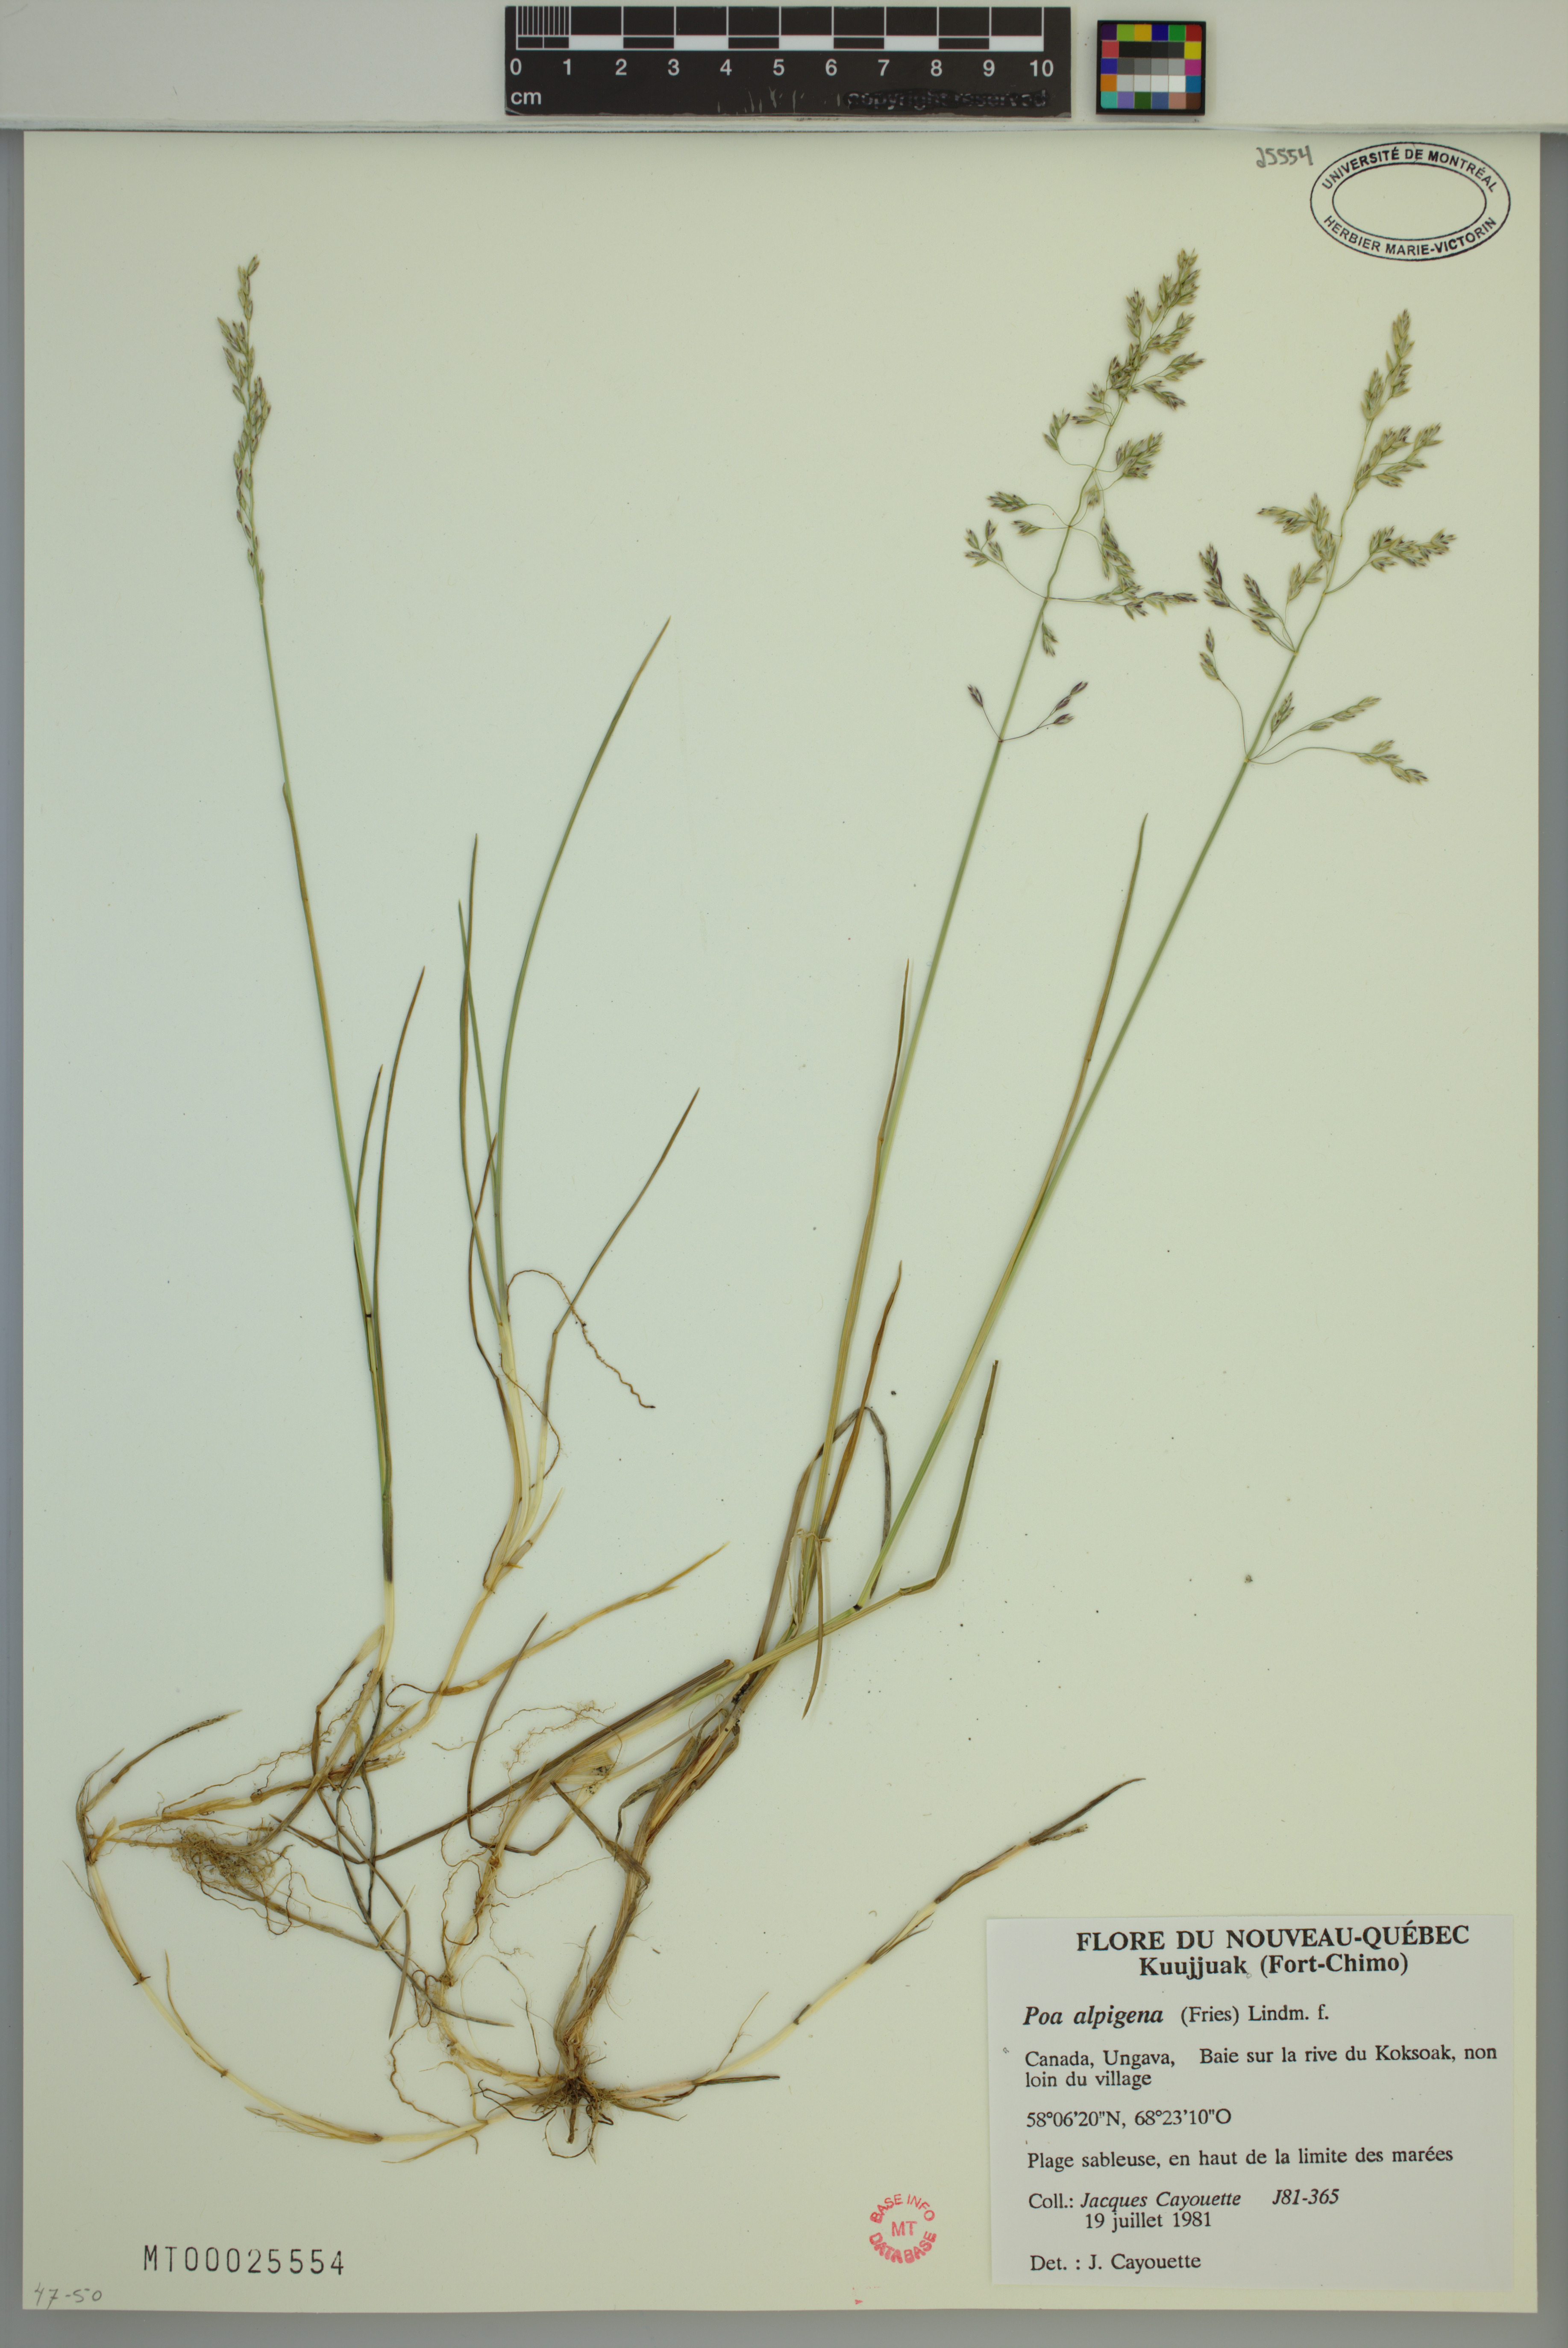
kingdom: Plantae
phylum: Tracheophyta
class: Liliopsida
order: Poales
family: Poaceae
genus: Poa
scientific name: Poa alpigena
